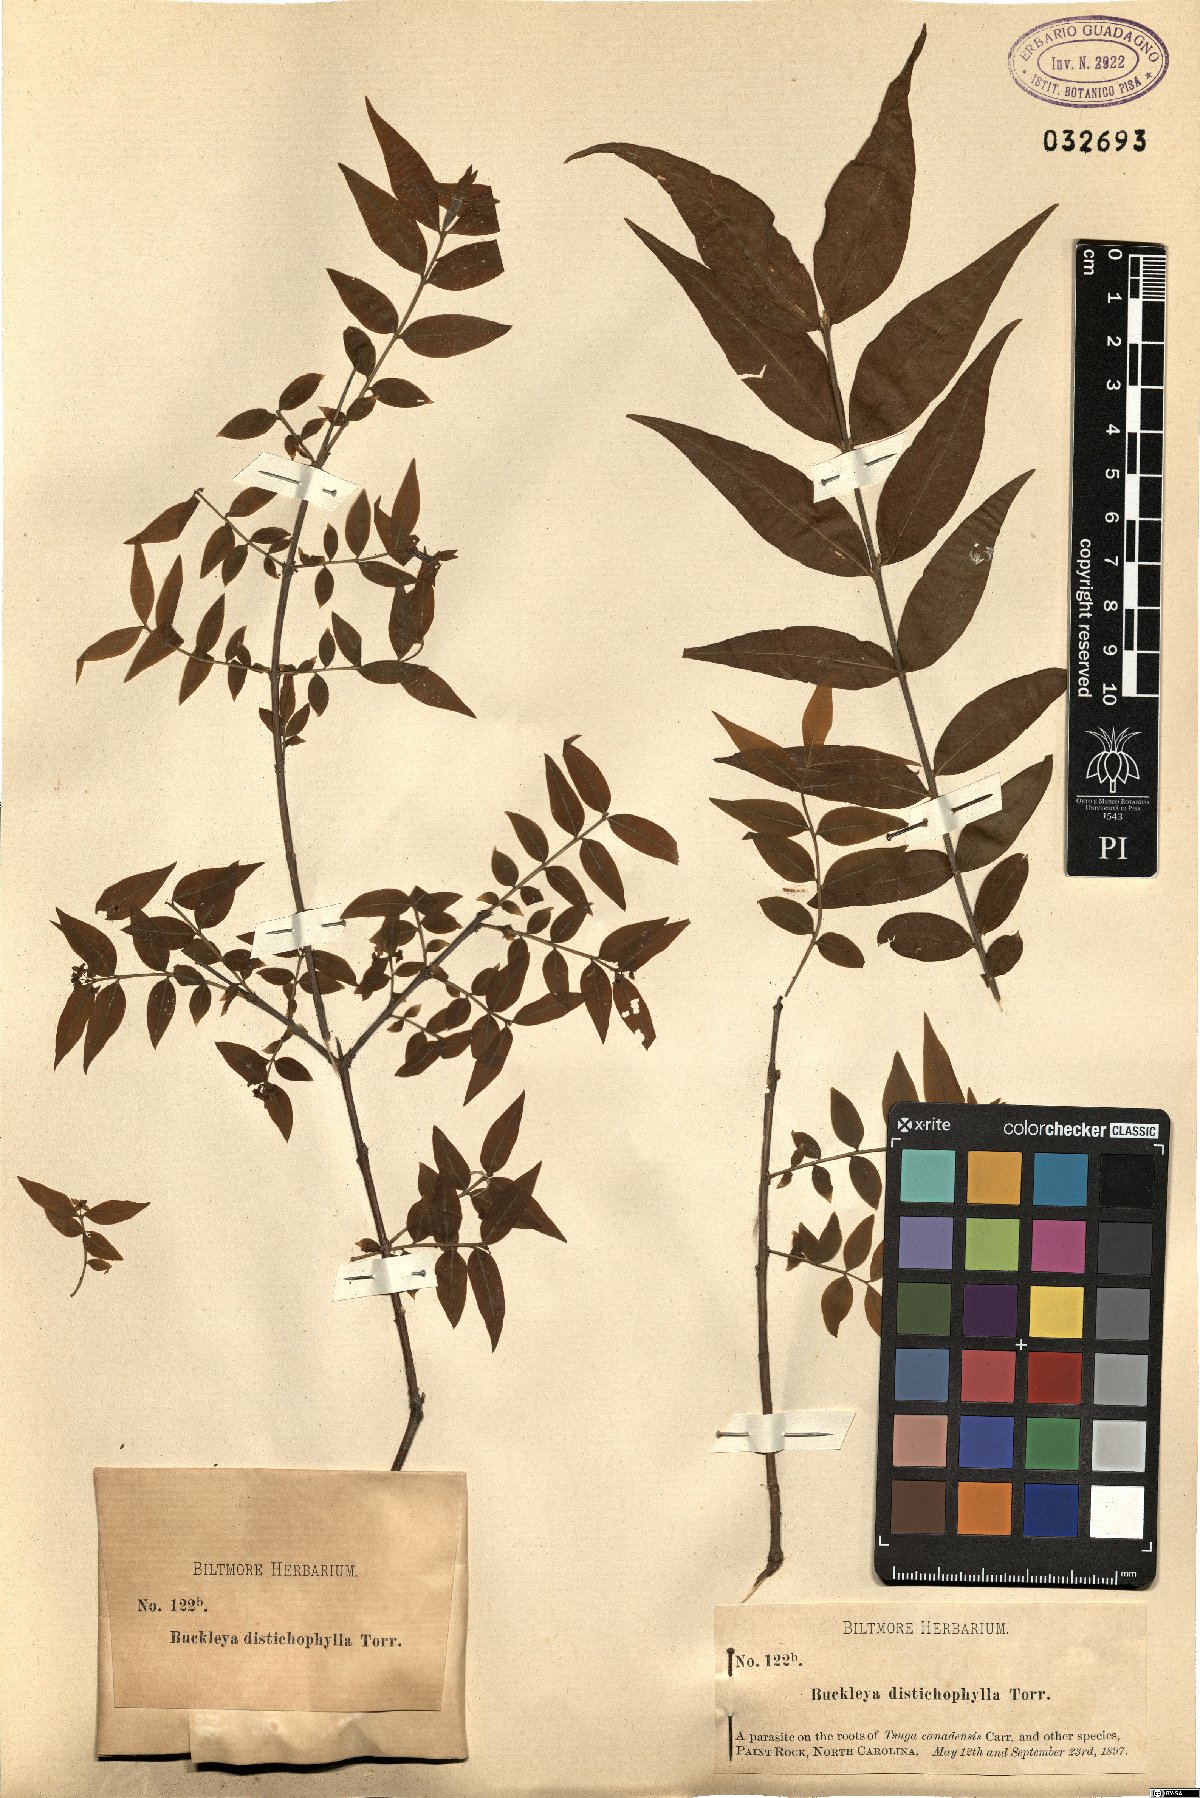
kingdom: Plantae
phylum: Tracheophyta
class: Magnoliopsida
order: Santalales
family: Thesiaceae
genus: Buckleya
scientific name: Buckleya distichophylla
